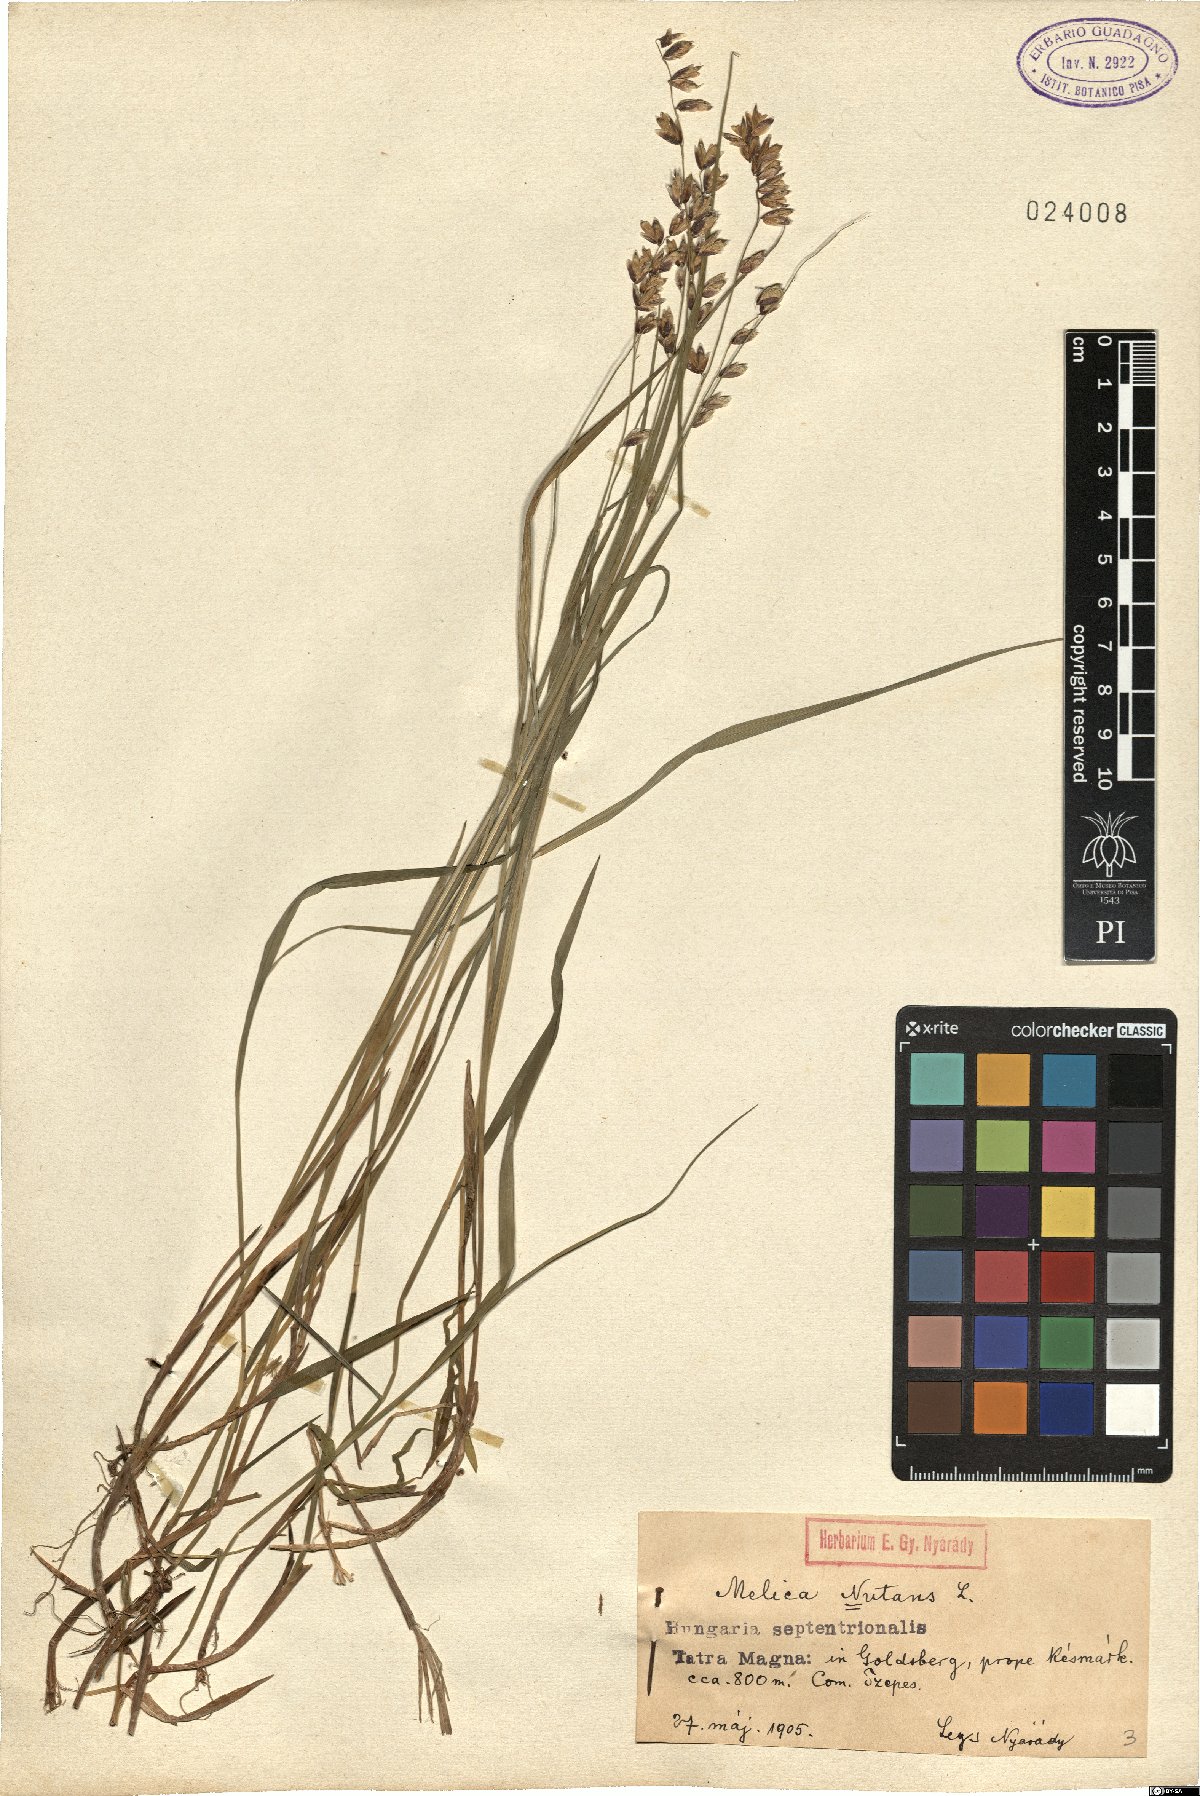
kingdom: Plantae
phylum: Tracheophyta
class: Liliopsida
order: Poales
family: Poaceae
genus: Melica
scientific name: Melica nutans
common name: Mountain melick
